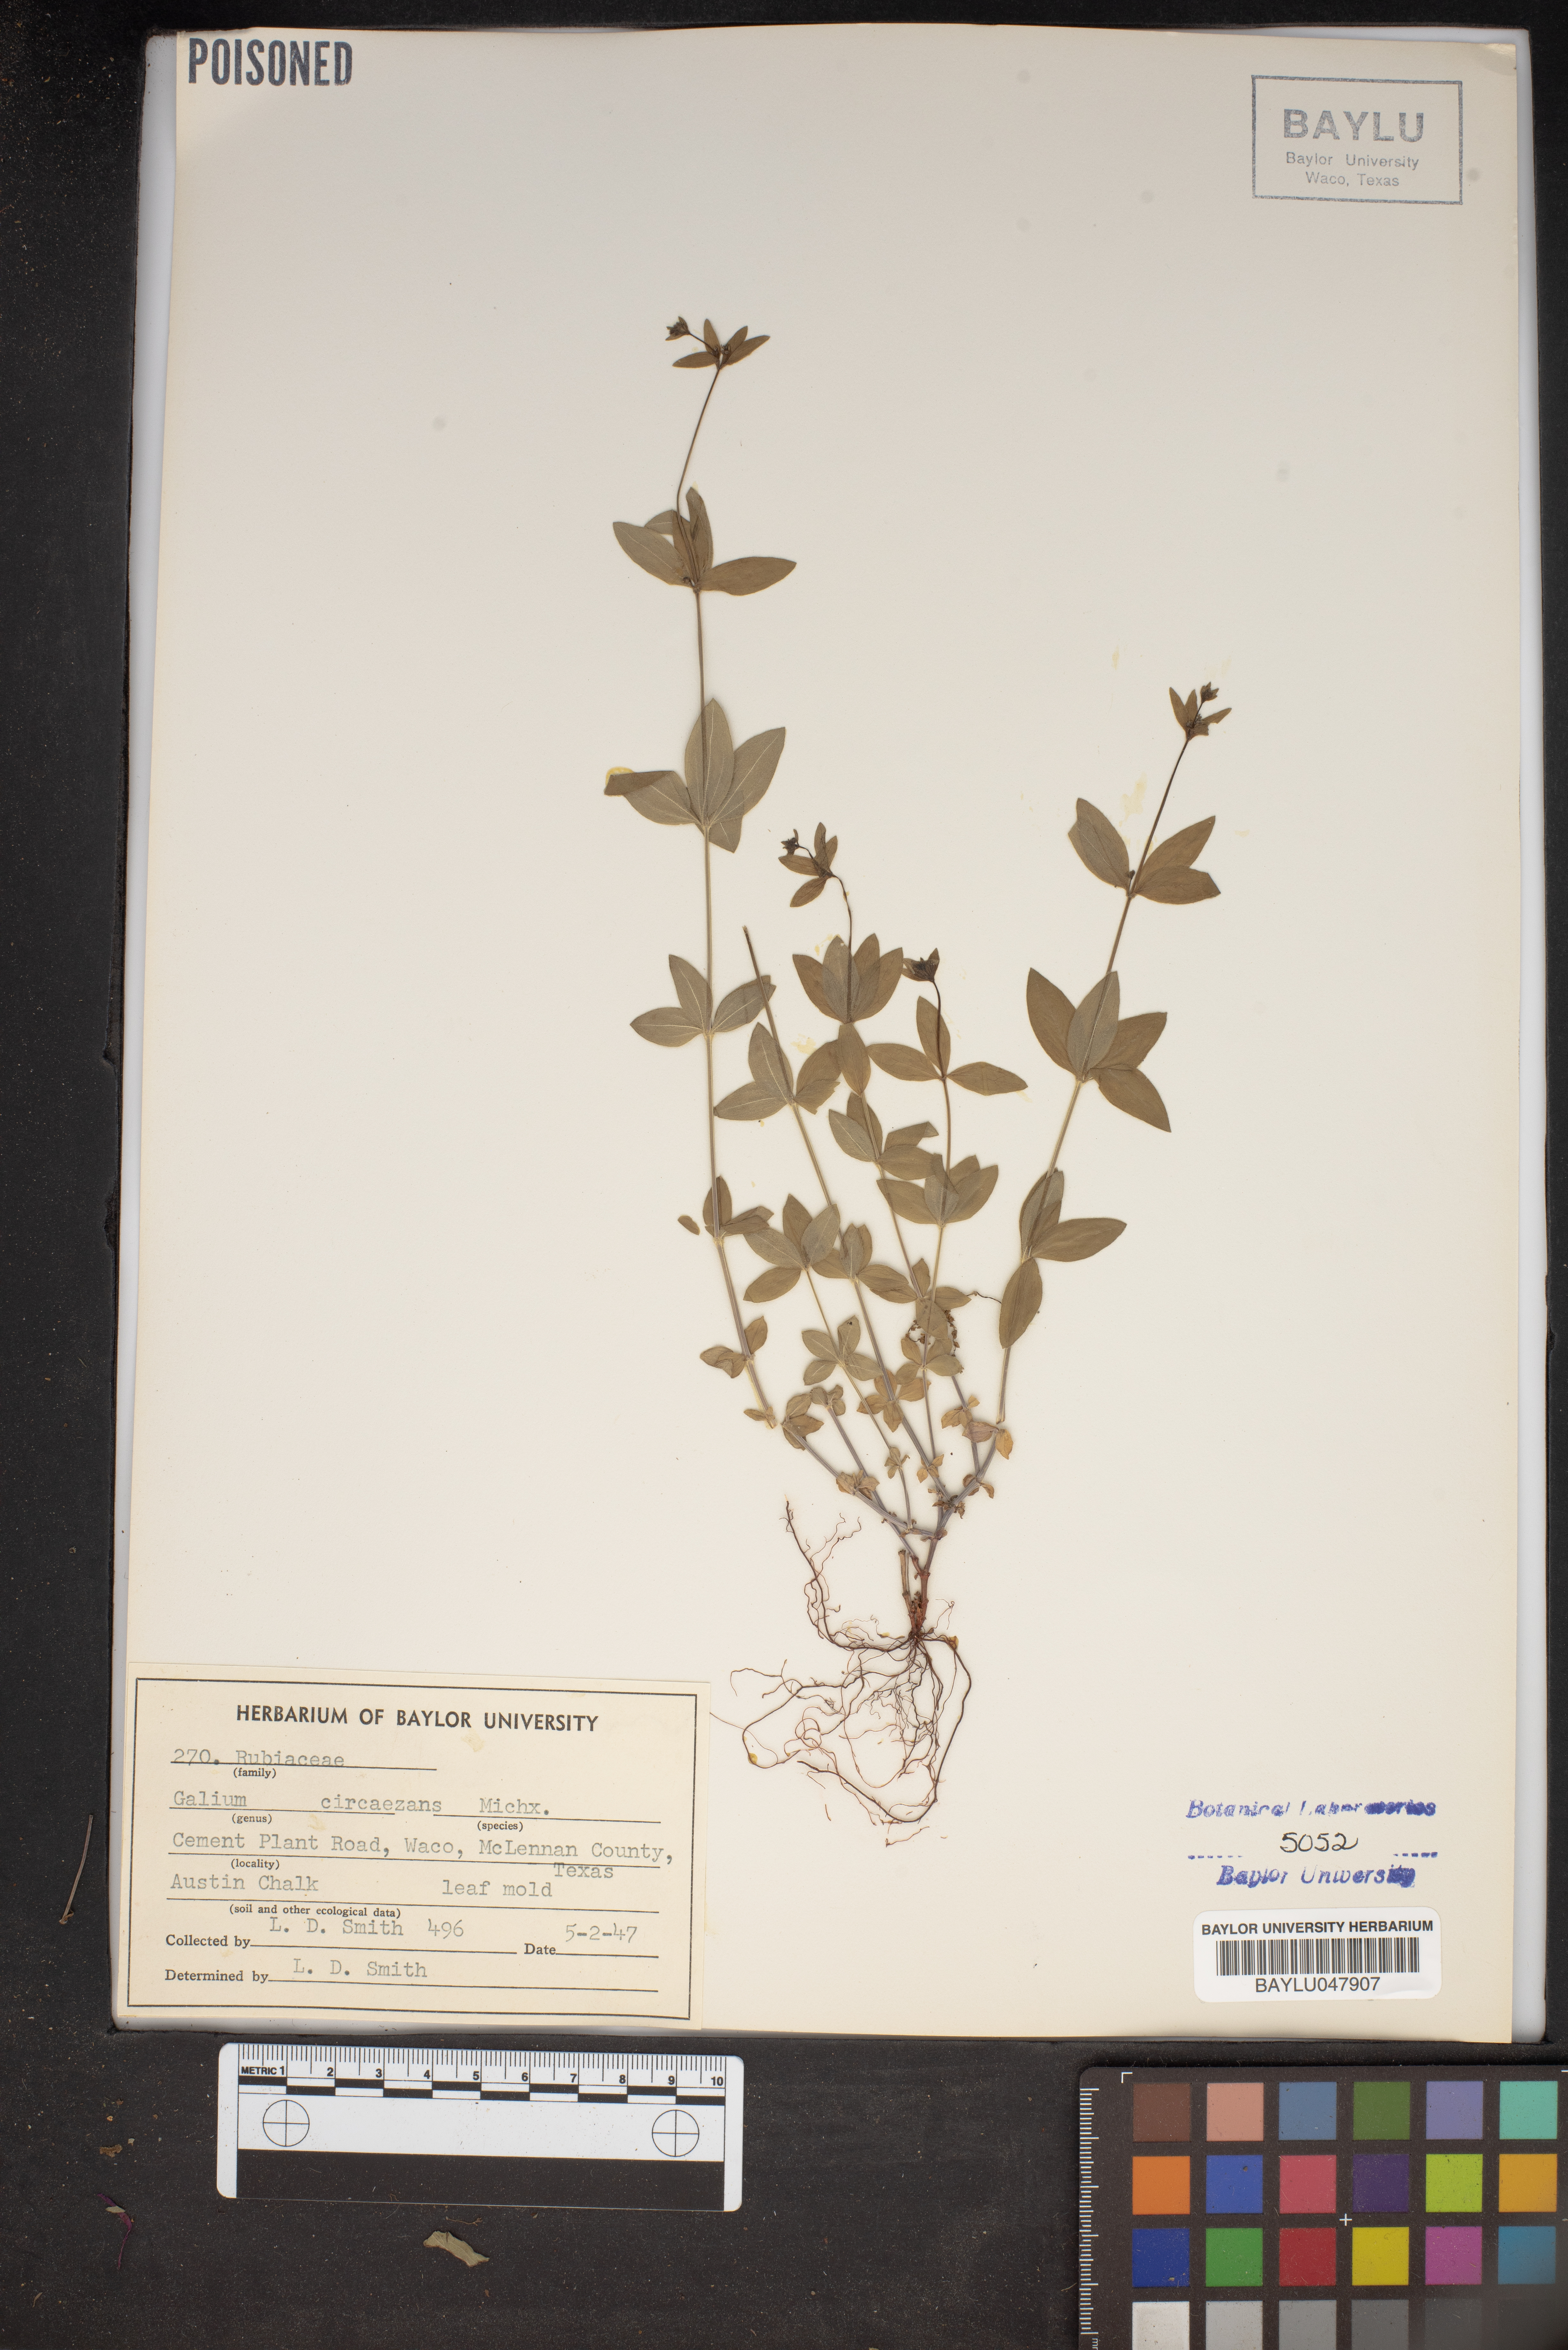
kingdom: Plantae
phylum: Tracheophyta
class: Magnoliopsida
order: Gentianales
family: Rubiaceae
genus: Galium
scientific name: Galium circaezans
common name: Forest bedstraw
